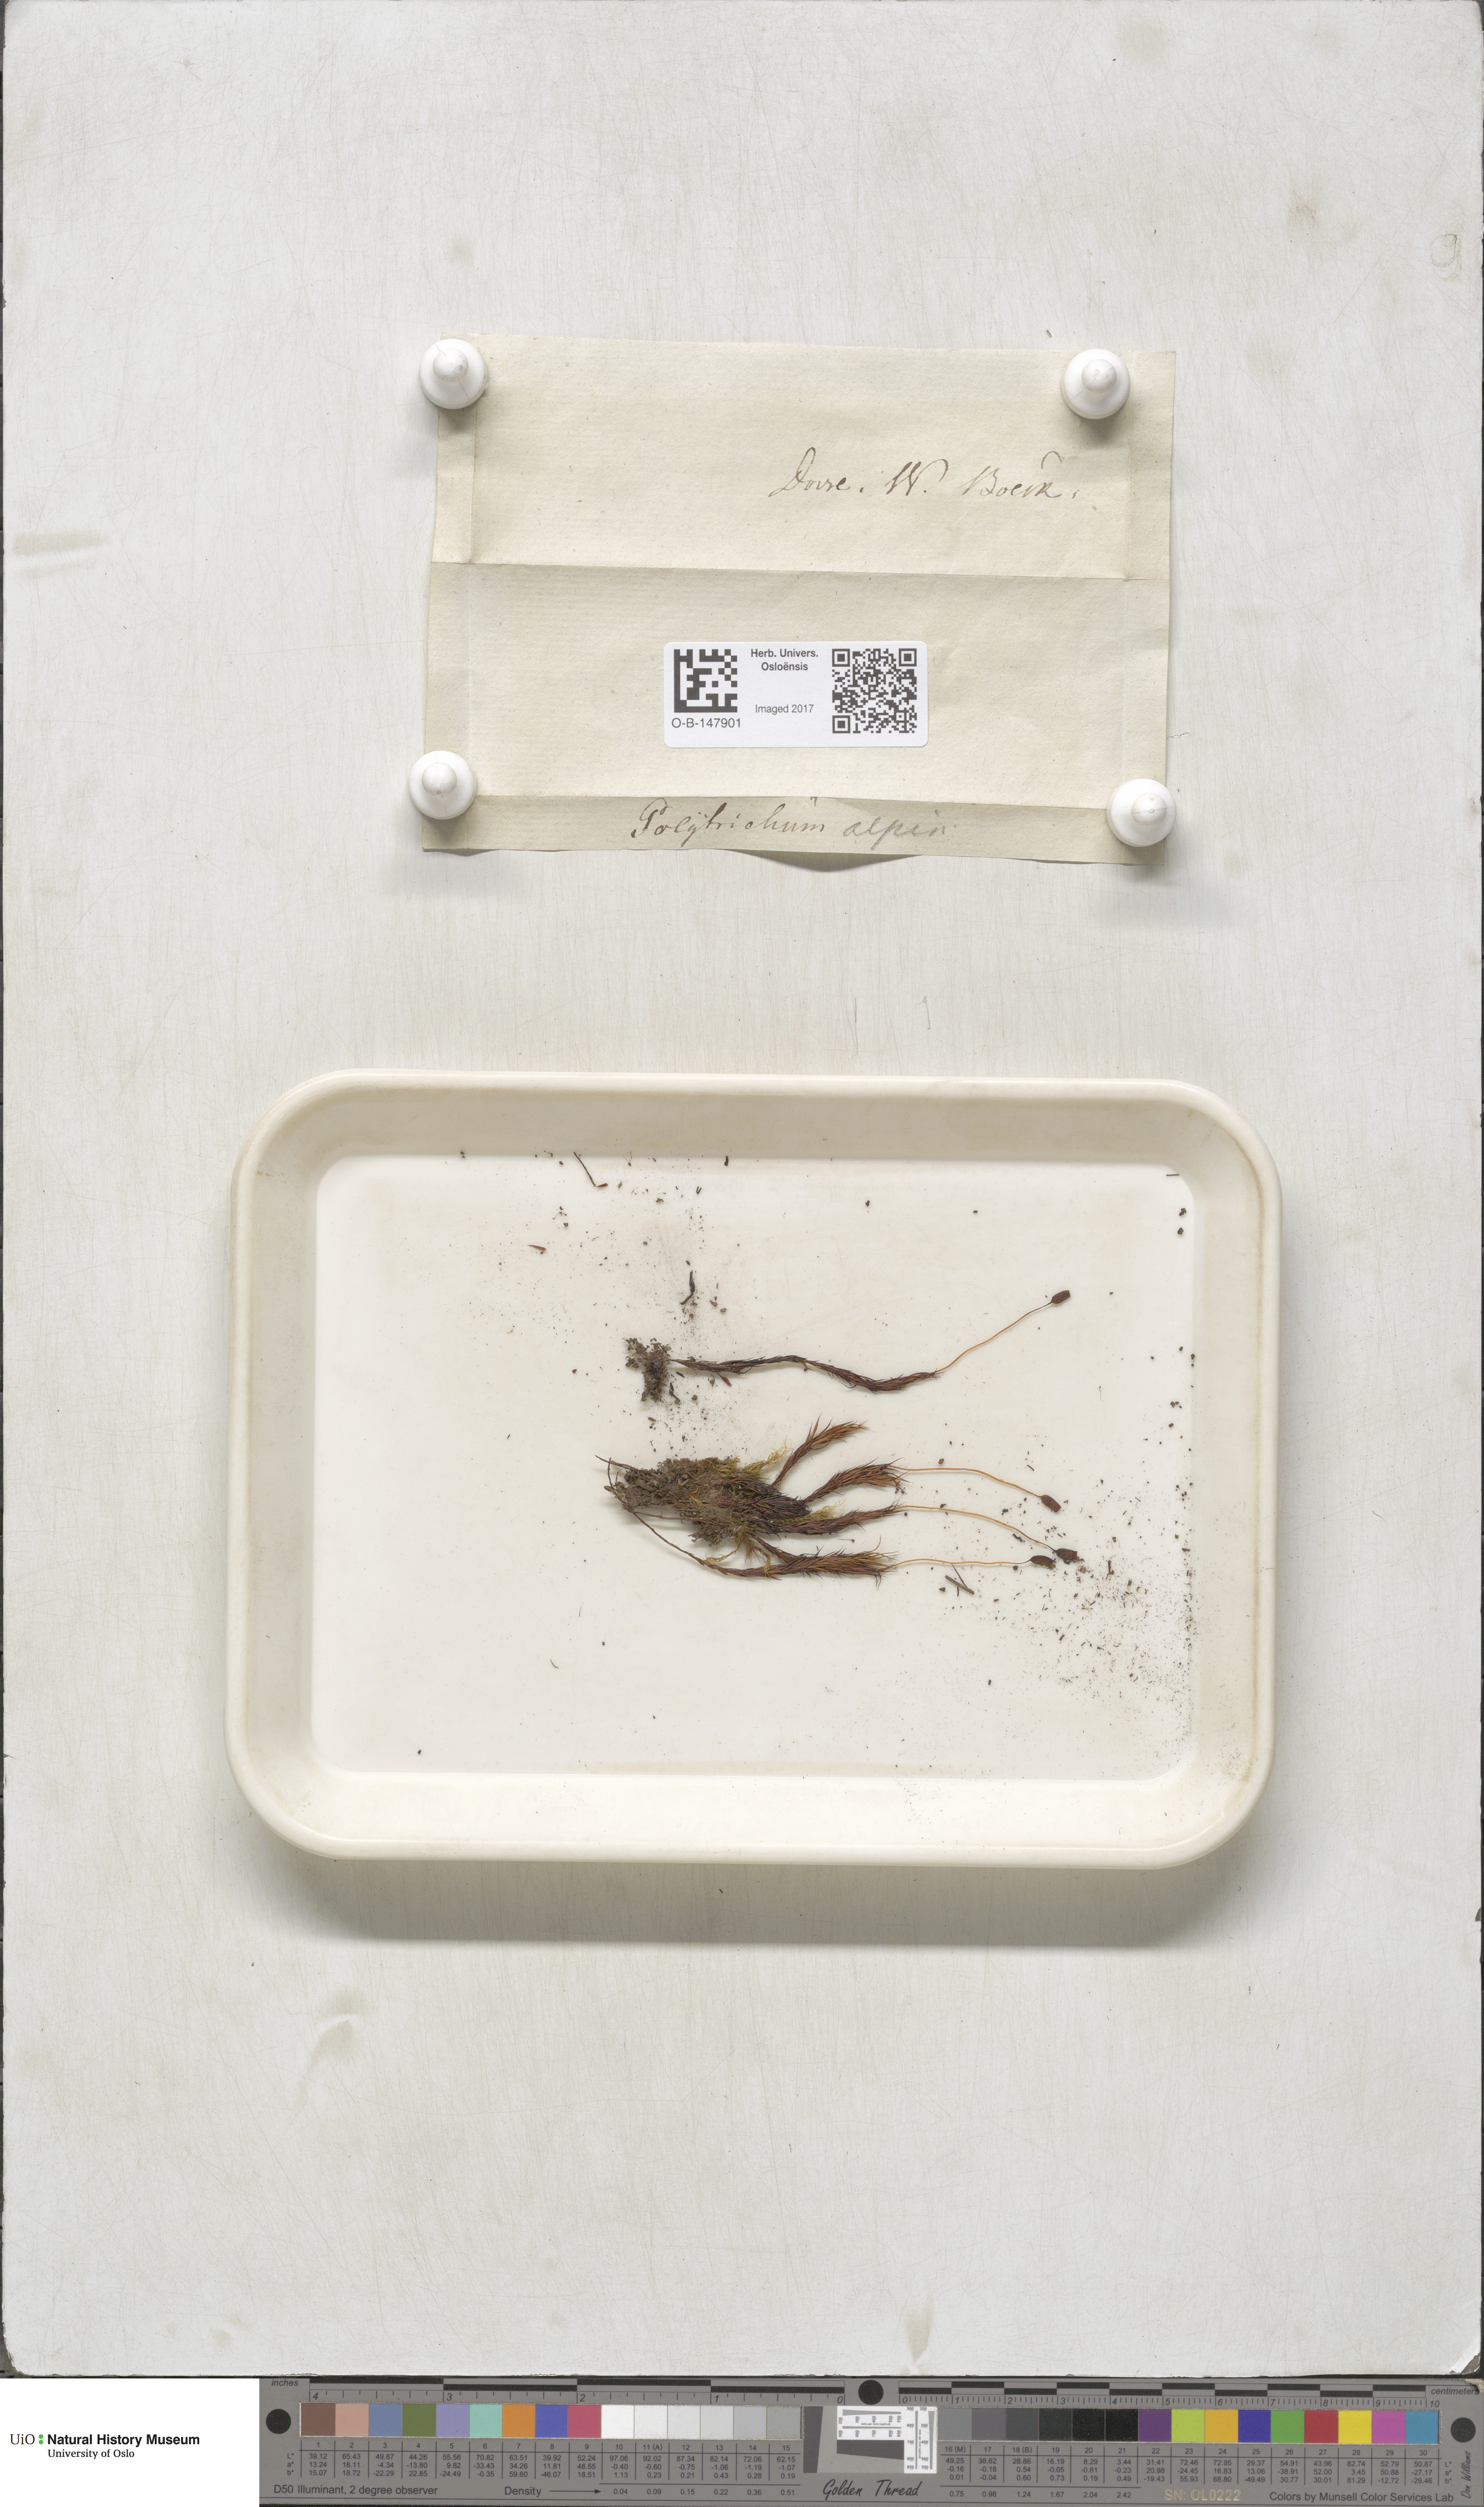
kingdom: Plantae
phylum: Bryophyta
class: Polytrichopsida
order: Polytrichales
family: Polytrichaceae
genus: Polytrichastrum
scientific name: Polytrichastrum alpinum
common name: Alpine haircap
